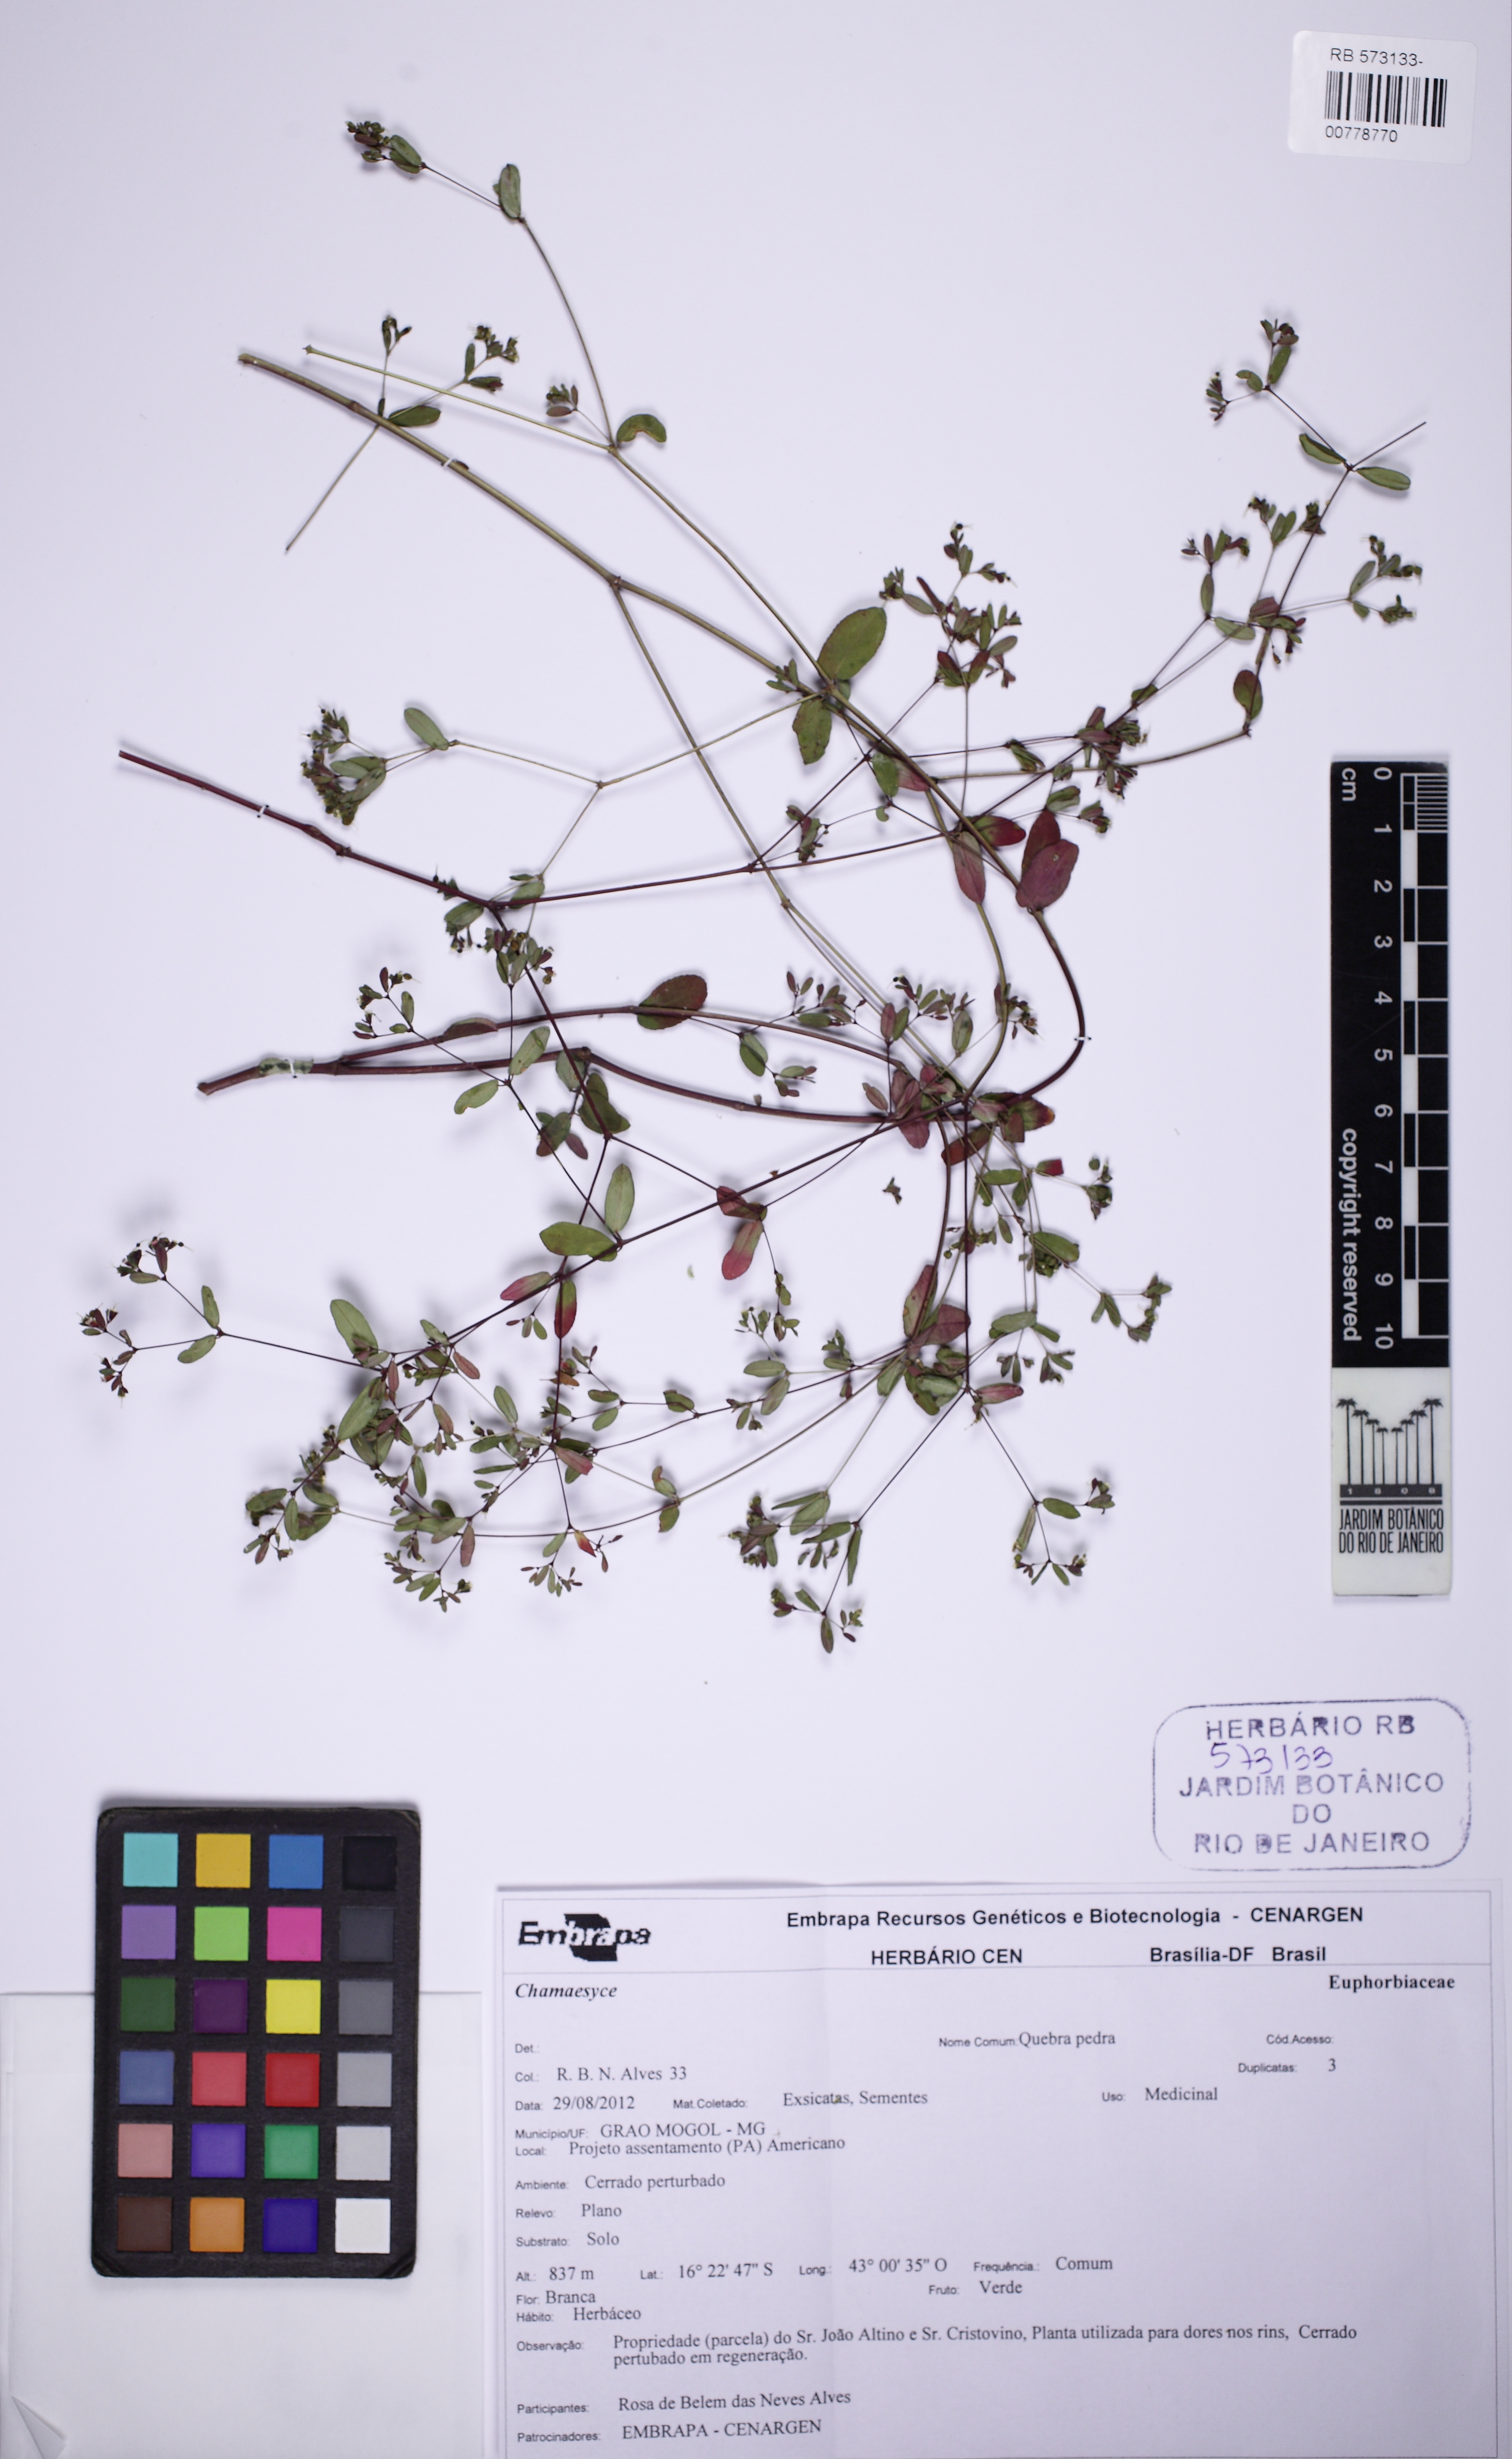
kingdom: Plantae
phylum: Tracheophyta
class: Magnoliopsida
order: Malpighiales
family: Euphorbiaceae
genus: Euphorbia
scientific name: Euphorbia foliolosa
